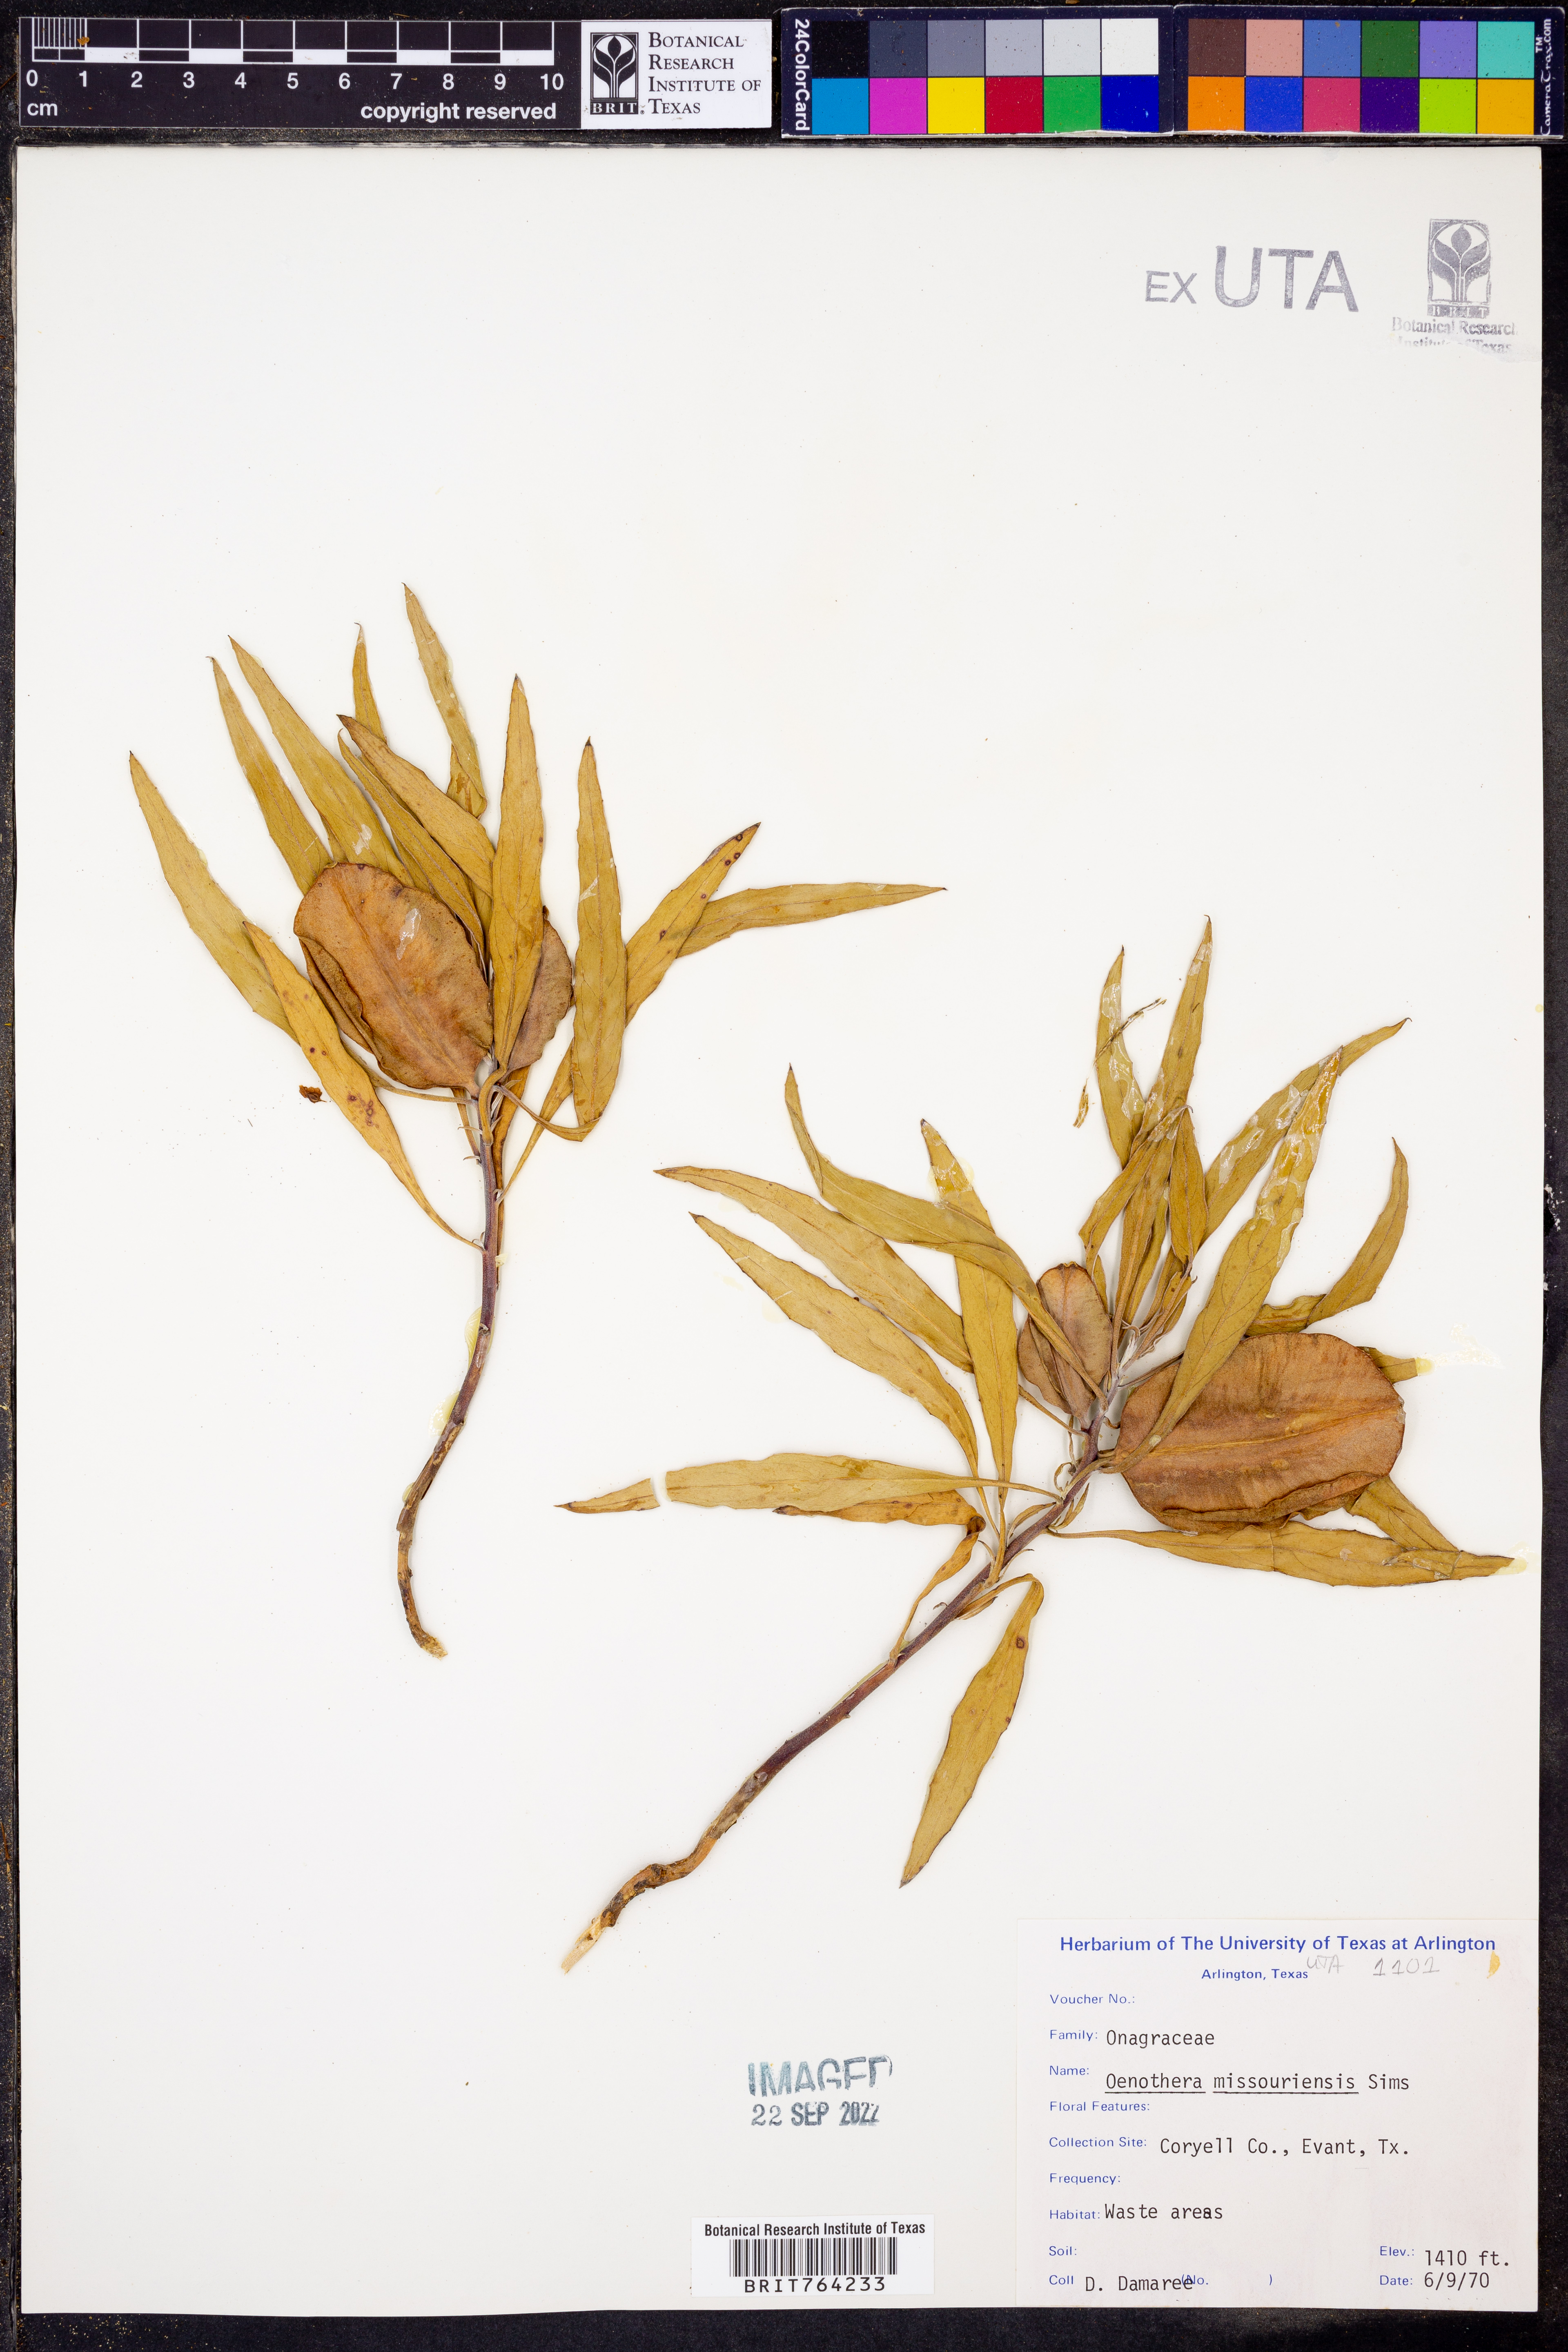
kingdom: Plantae
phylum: Tracheophyta
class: Magnoliopsida
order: Myrtales
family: Onagraceae
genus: Oenothera
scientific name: Oenothera macrocarpa
